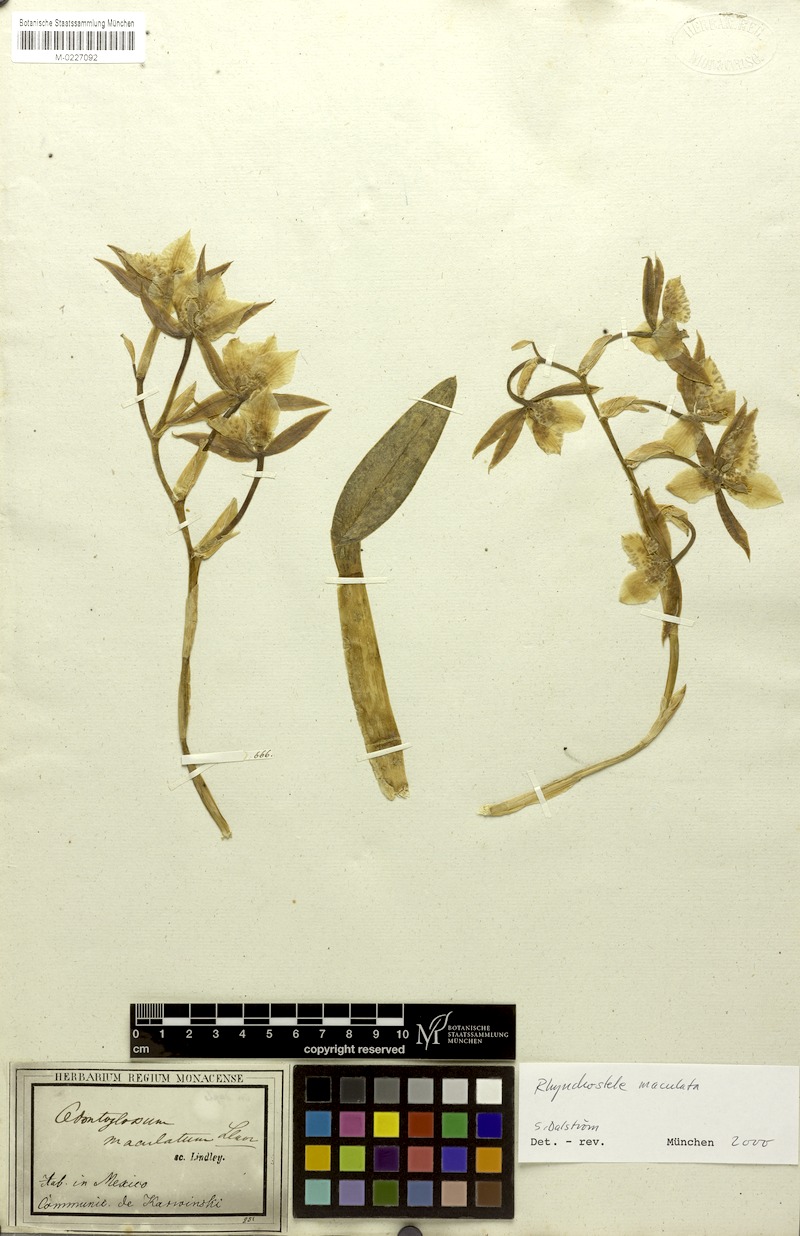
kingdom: Plantae
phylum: Tracheophyta
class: Liliopsida
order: Asparagales
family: Orchidaceae
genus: Rhynchostele
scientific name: Rhynchostele maculata
